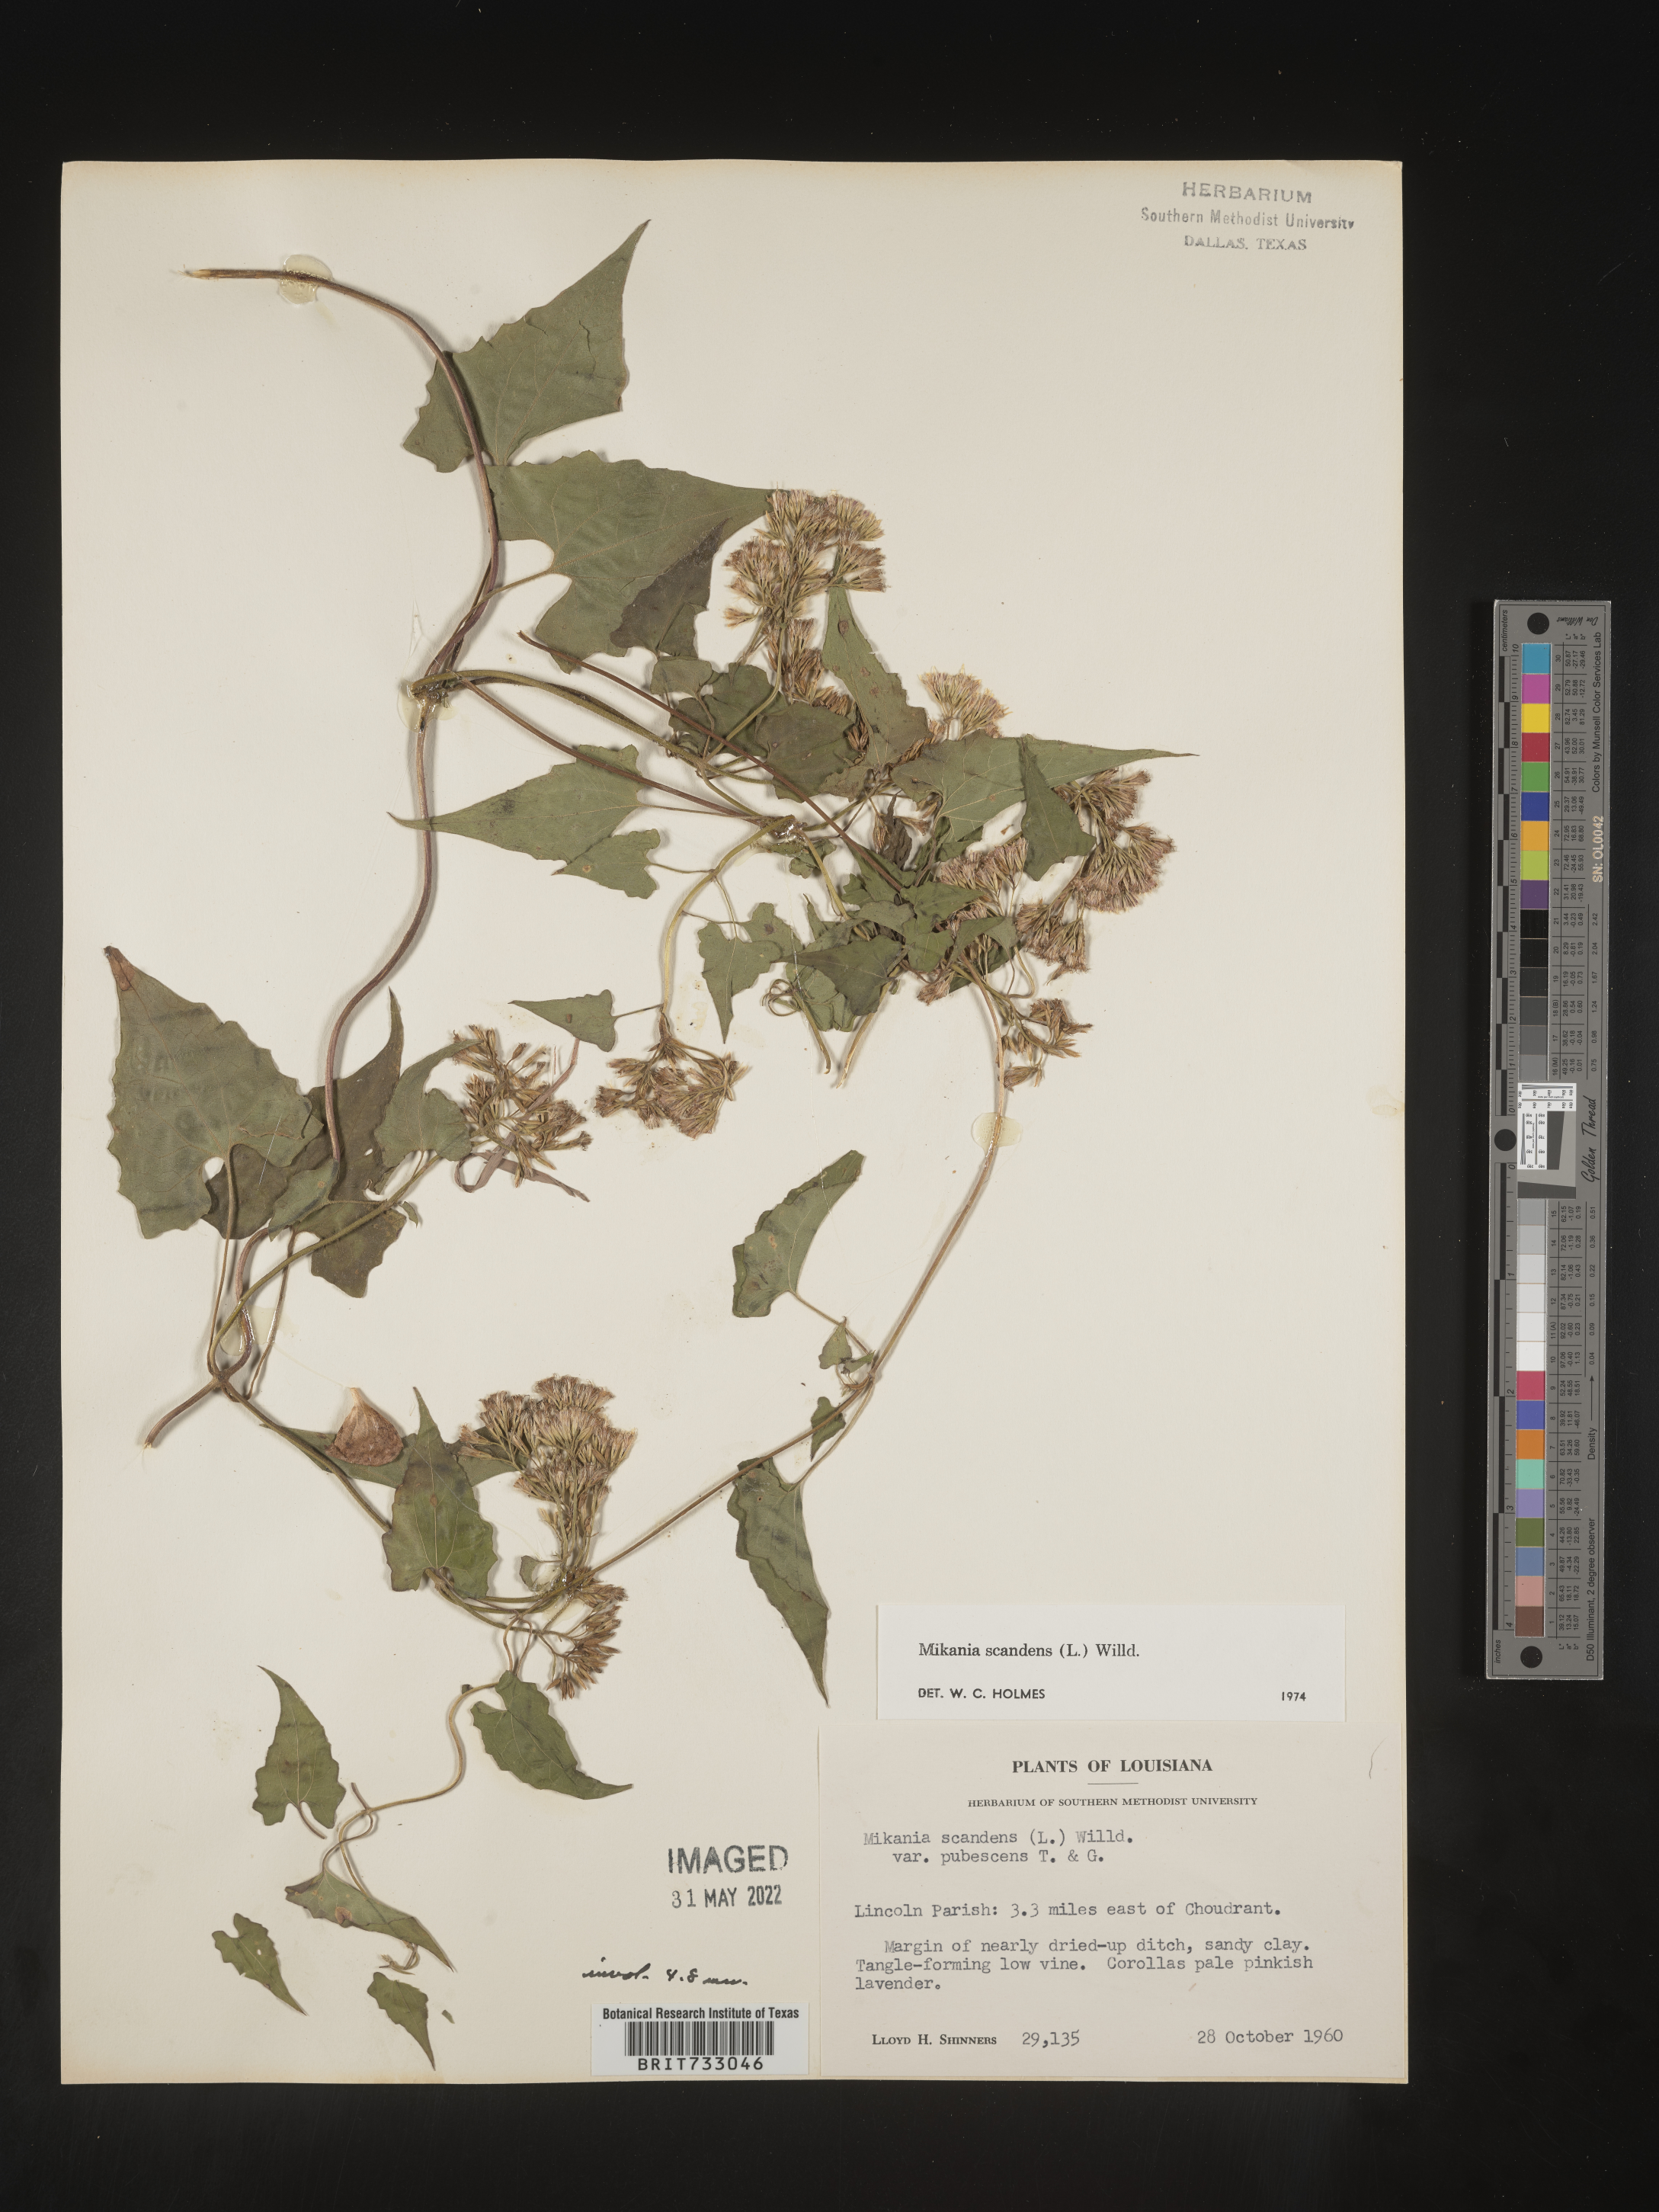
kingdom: Plantae
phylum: Tracheophyta
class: Magnoliopsida
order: Asterales
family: Asteraceae
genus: Mikania
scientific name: Mikania scandens
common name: Climbing hempvine
